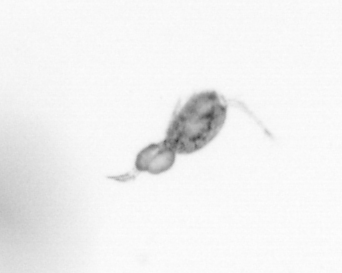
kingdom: Animalia
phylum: Arthropoda
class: Copepoda
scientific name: Copepoda
